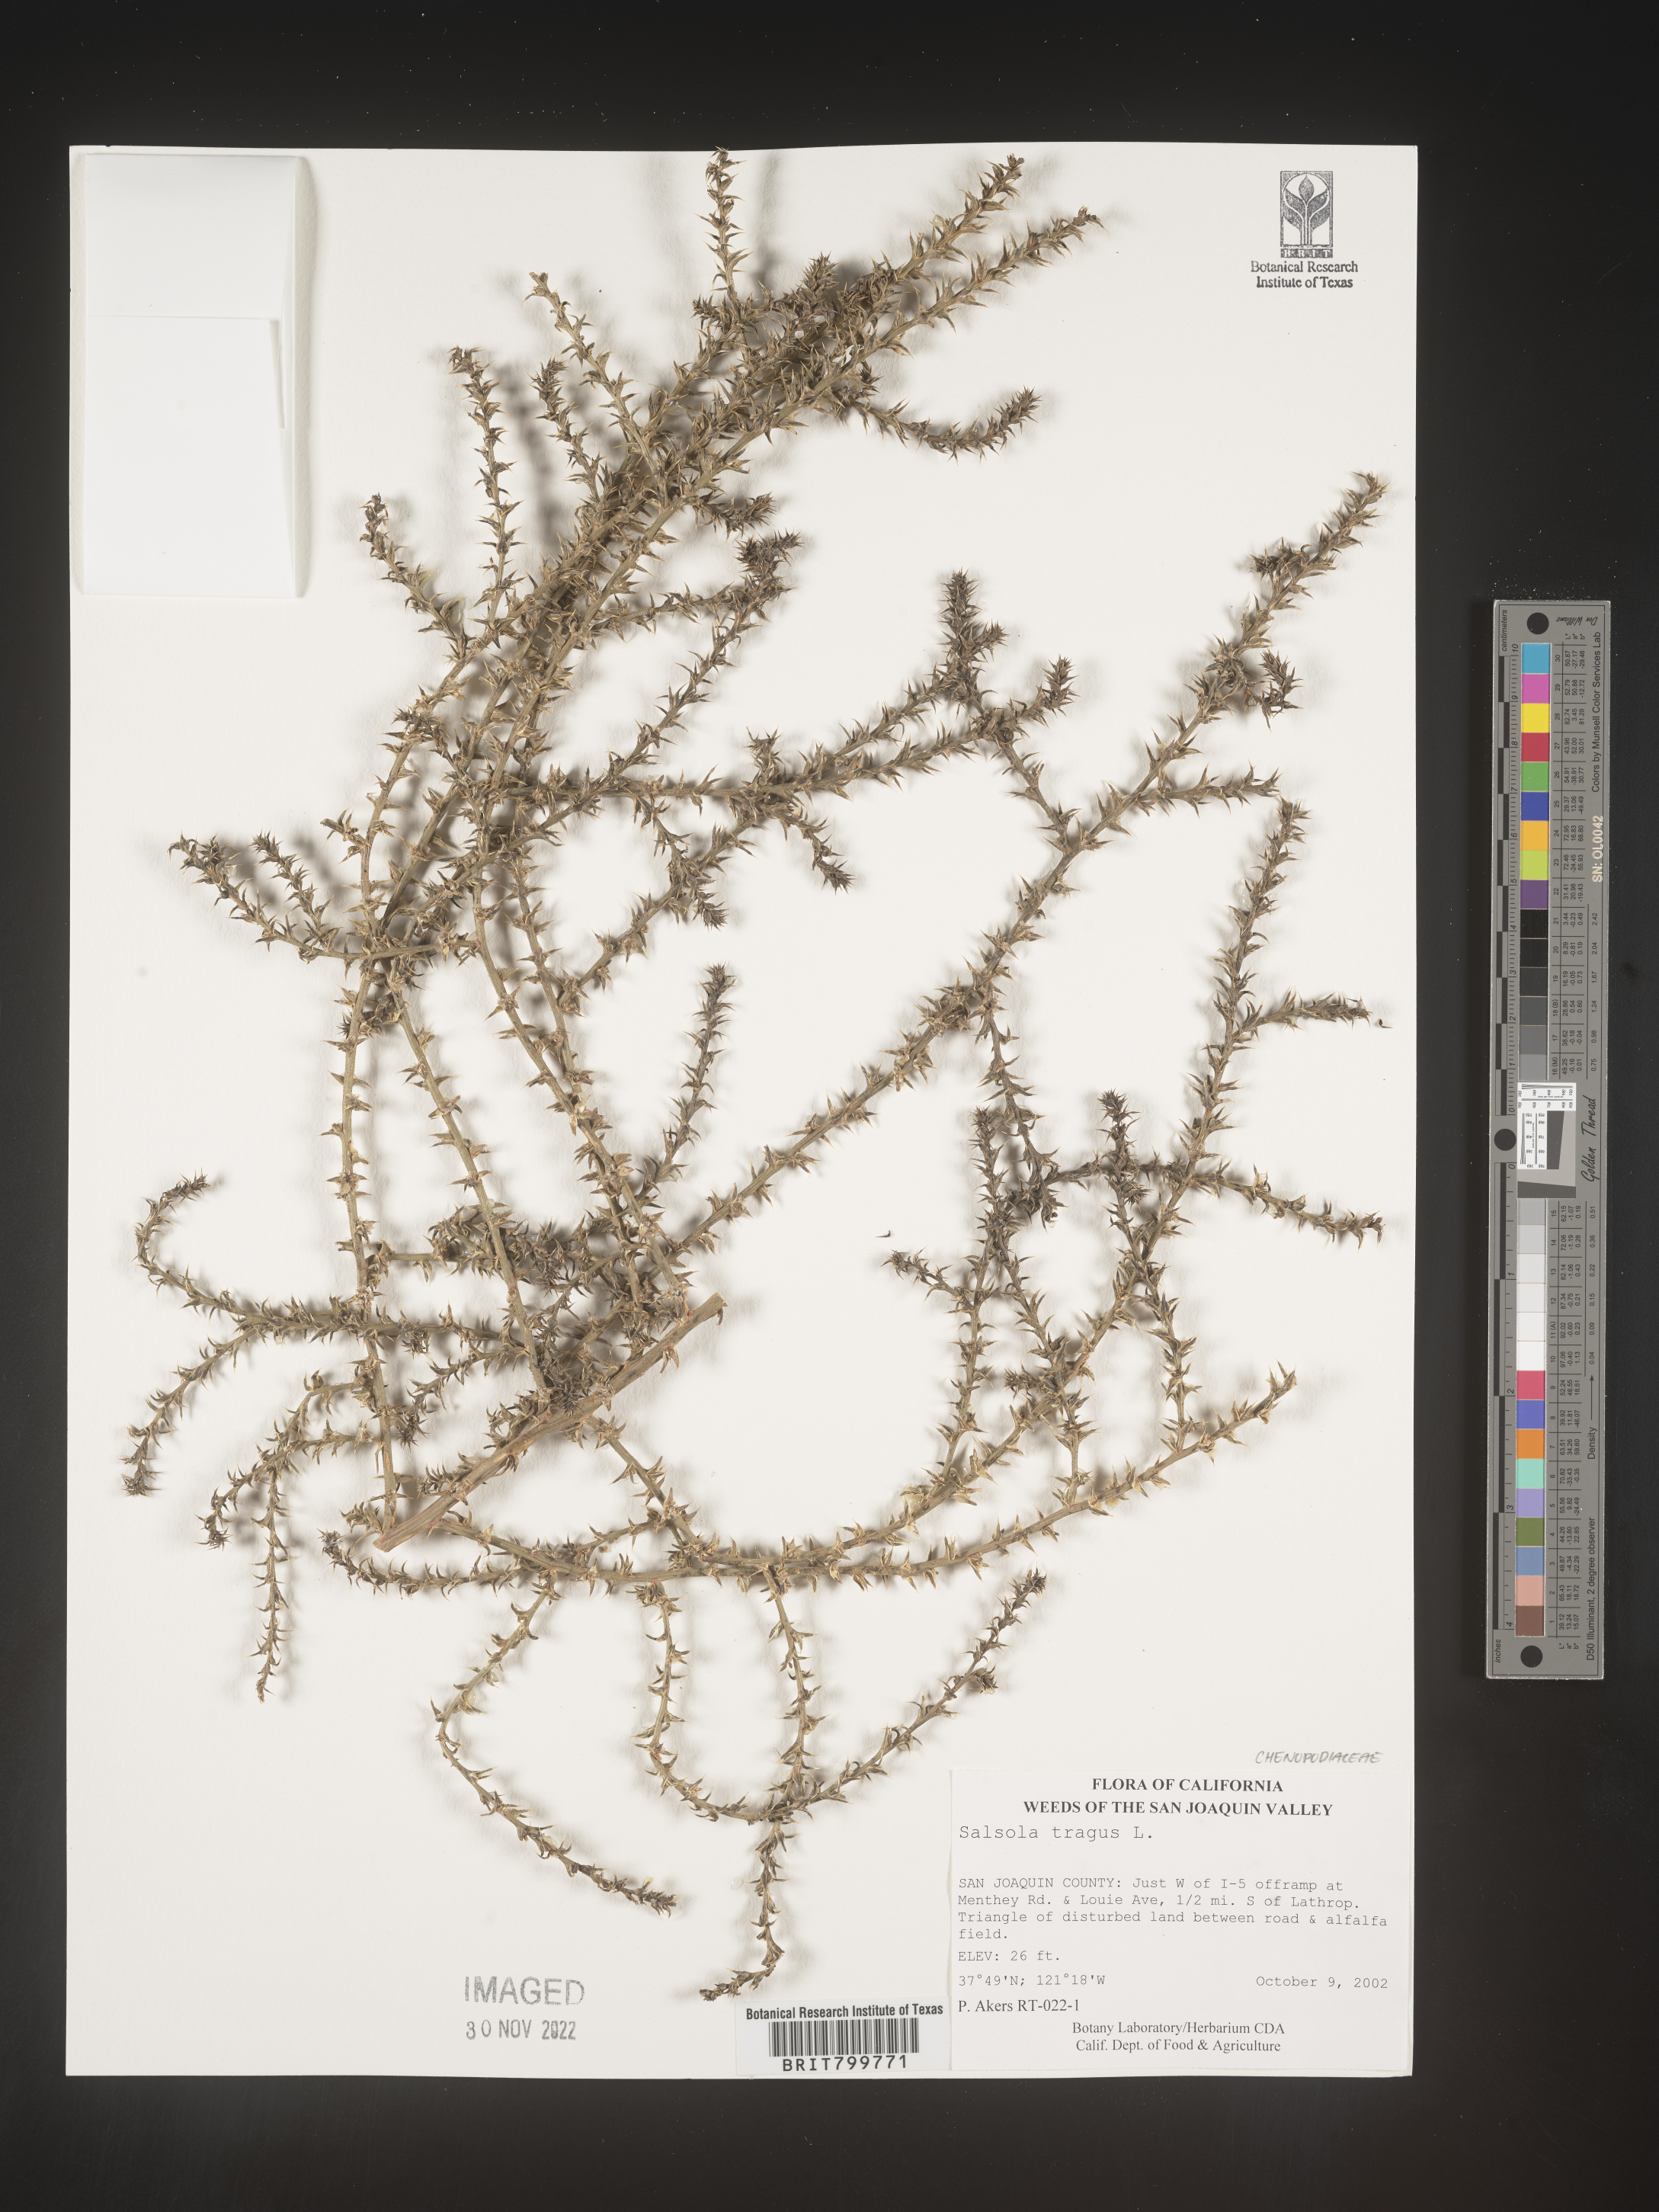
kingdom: Plantae
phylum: Tracheophyta
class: Magnoliopsida
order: Caryophyllales
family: Amaranthaceae
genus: Salsola
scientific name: Salsola tragus
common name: Prickly russian thistle
